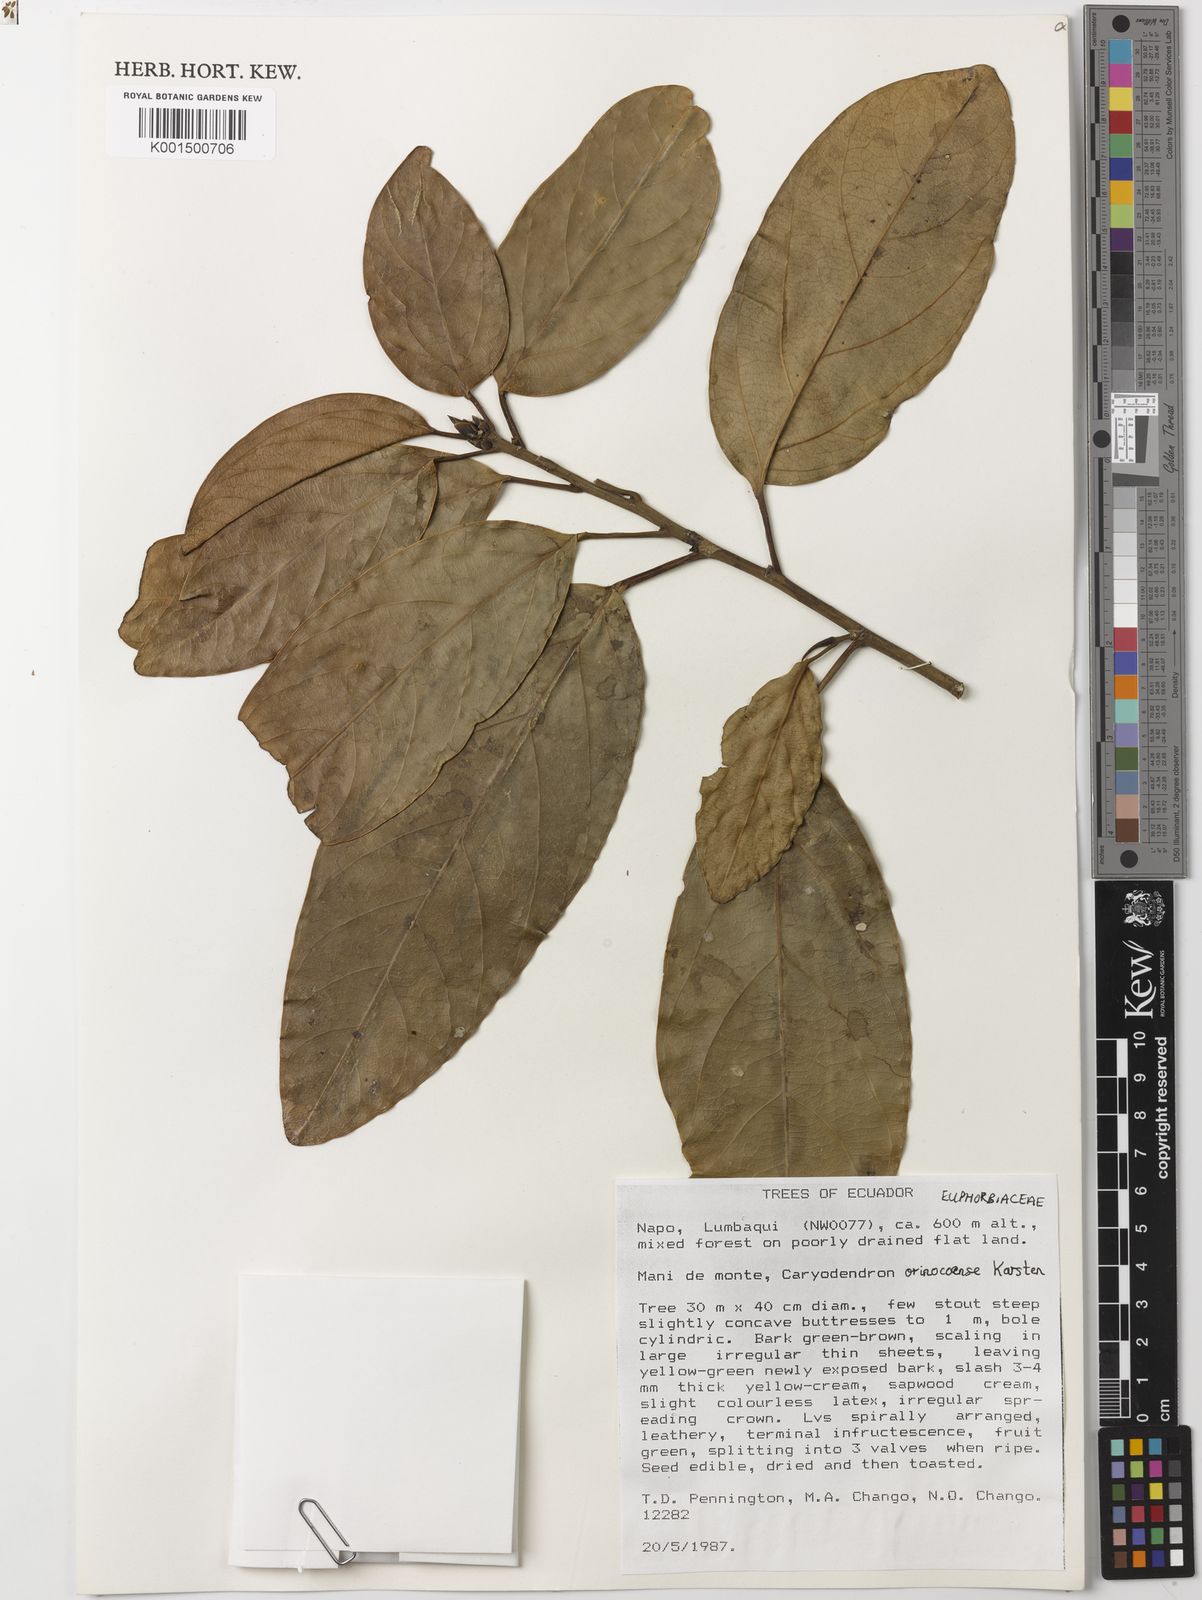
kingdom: Plantae
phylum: Tracheophyta
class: Magnoliopsida
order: Malpighiales
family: Euphorbiaceae
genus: Caryodendron
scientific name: Caryodendron orinocense
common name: Tacaynut
